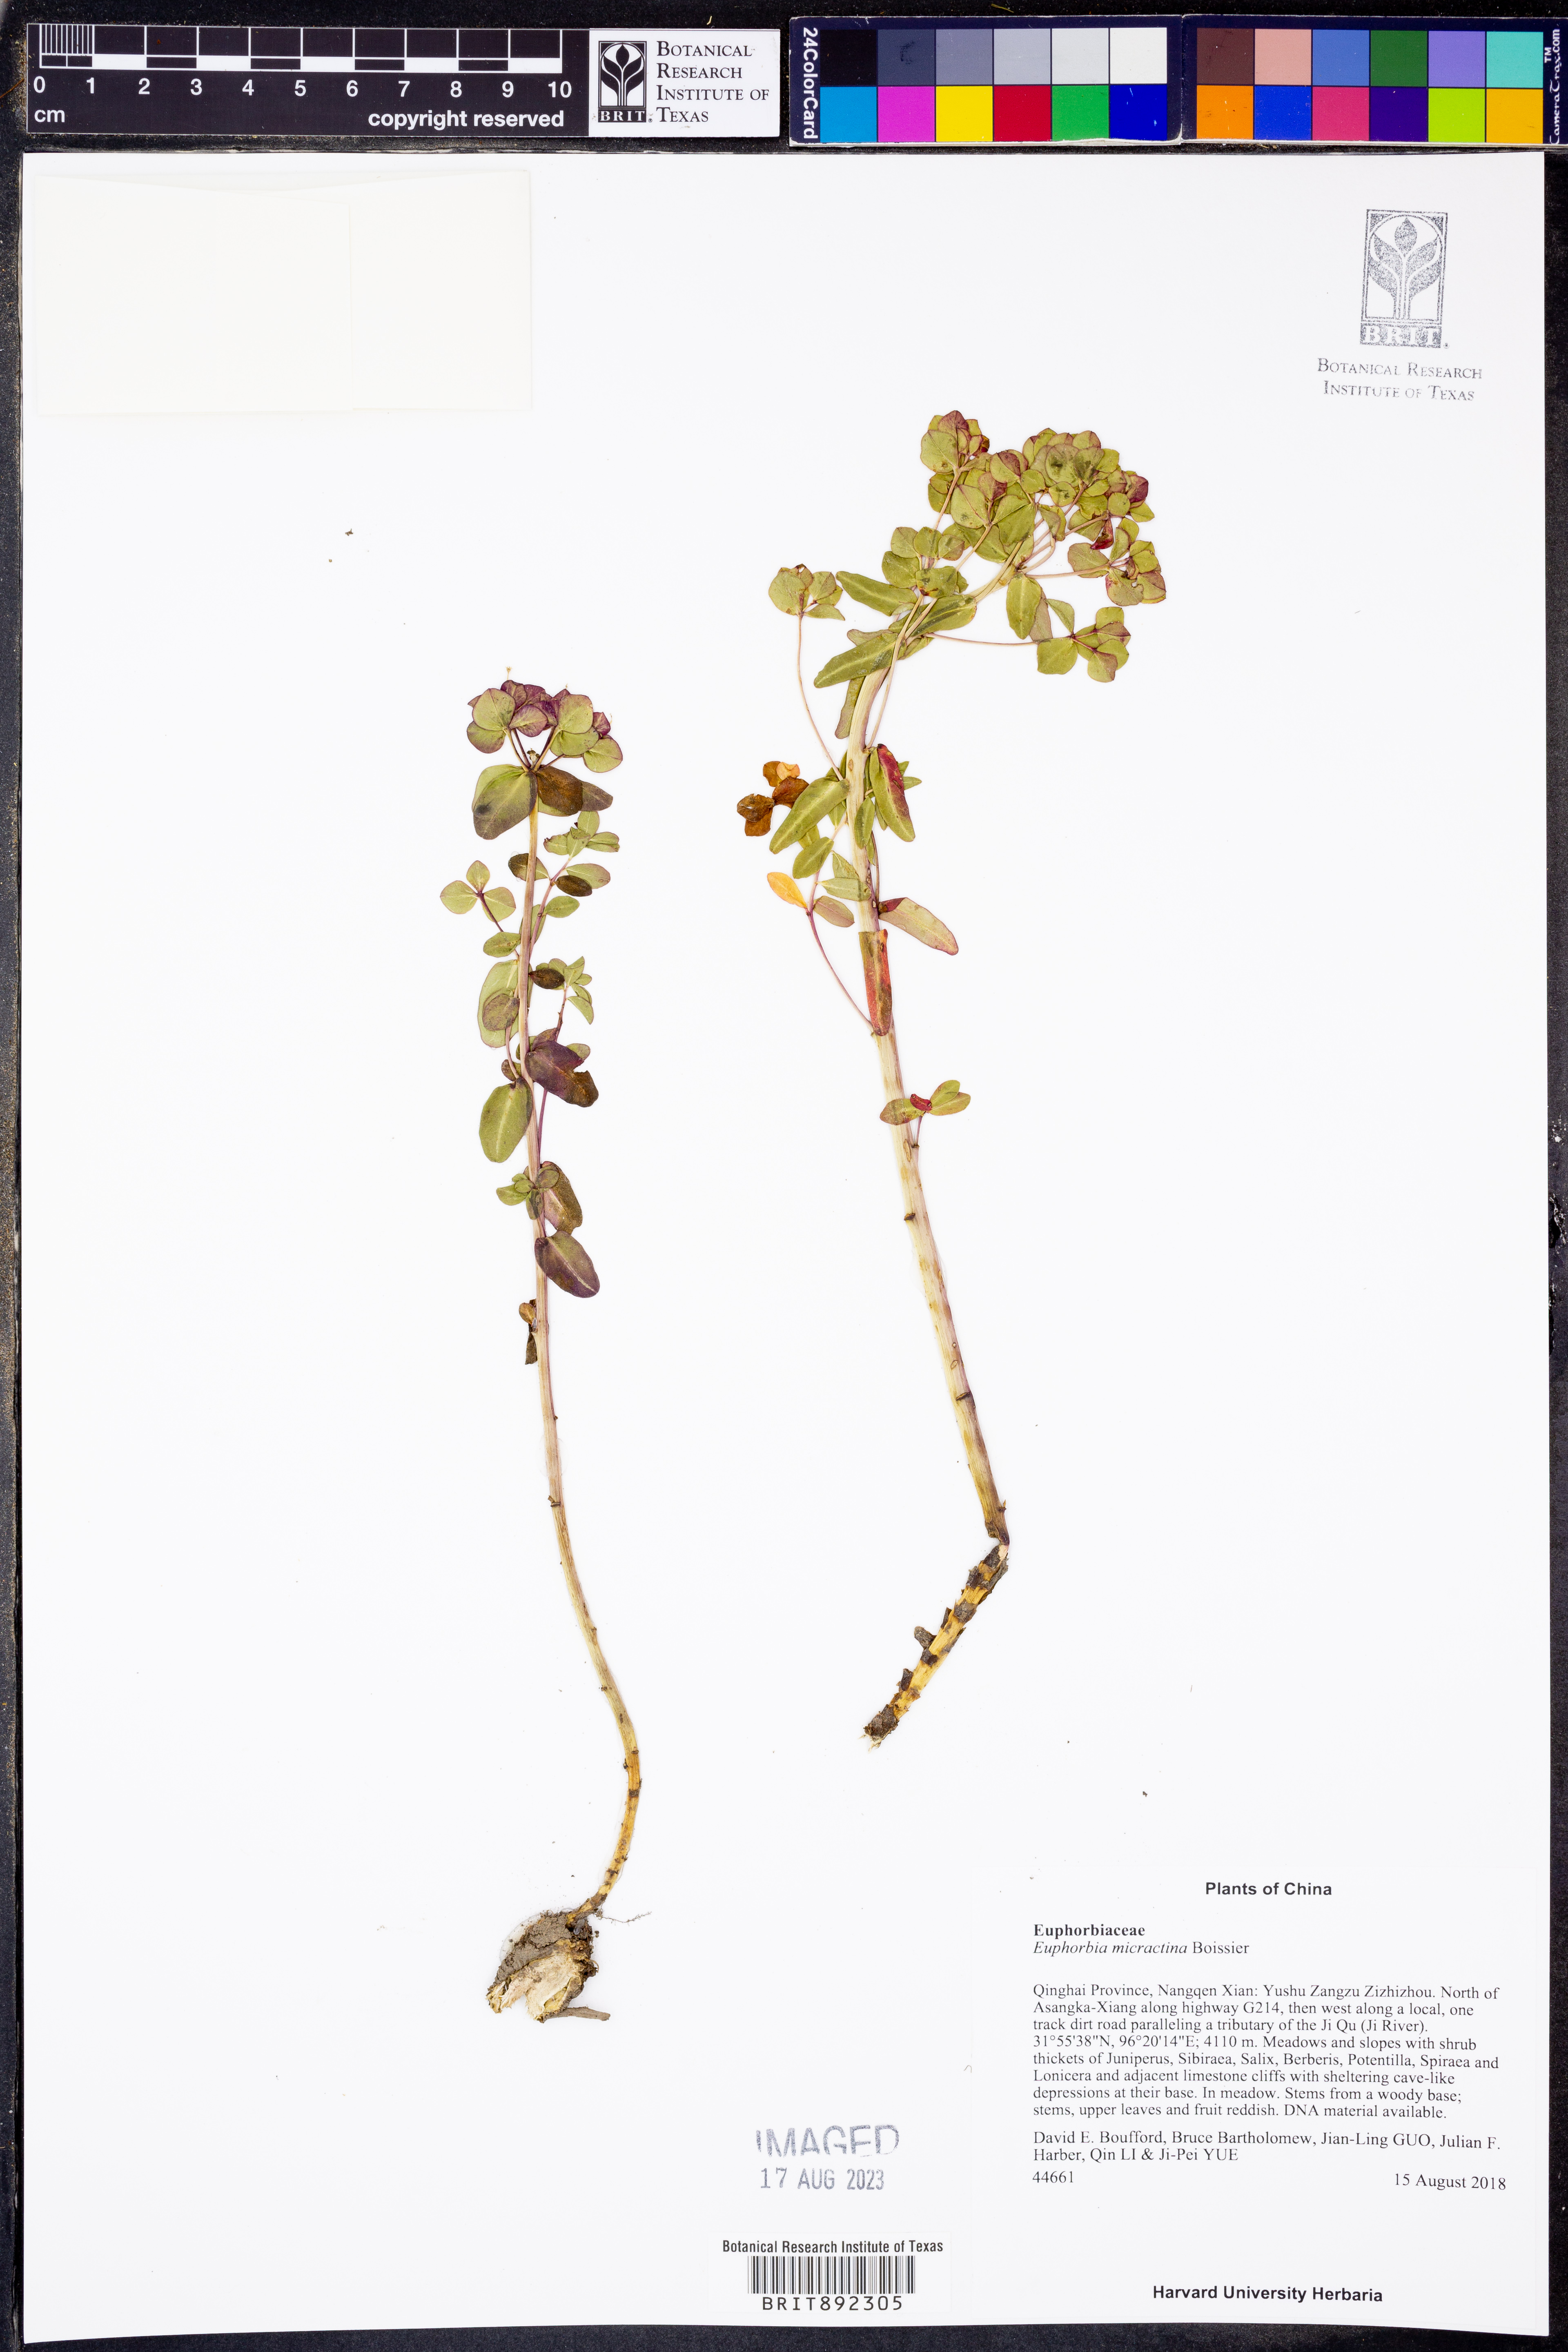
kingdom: Plantae
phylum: Tracheophyta
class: Magnoliopsida
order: Malpighiales
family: Euphorbiaceae
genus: Euphorbia
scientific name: Euphorbia micractina
